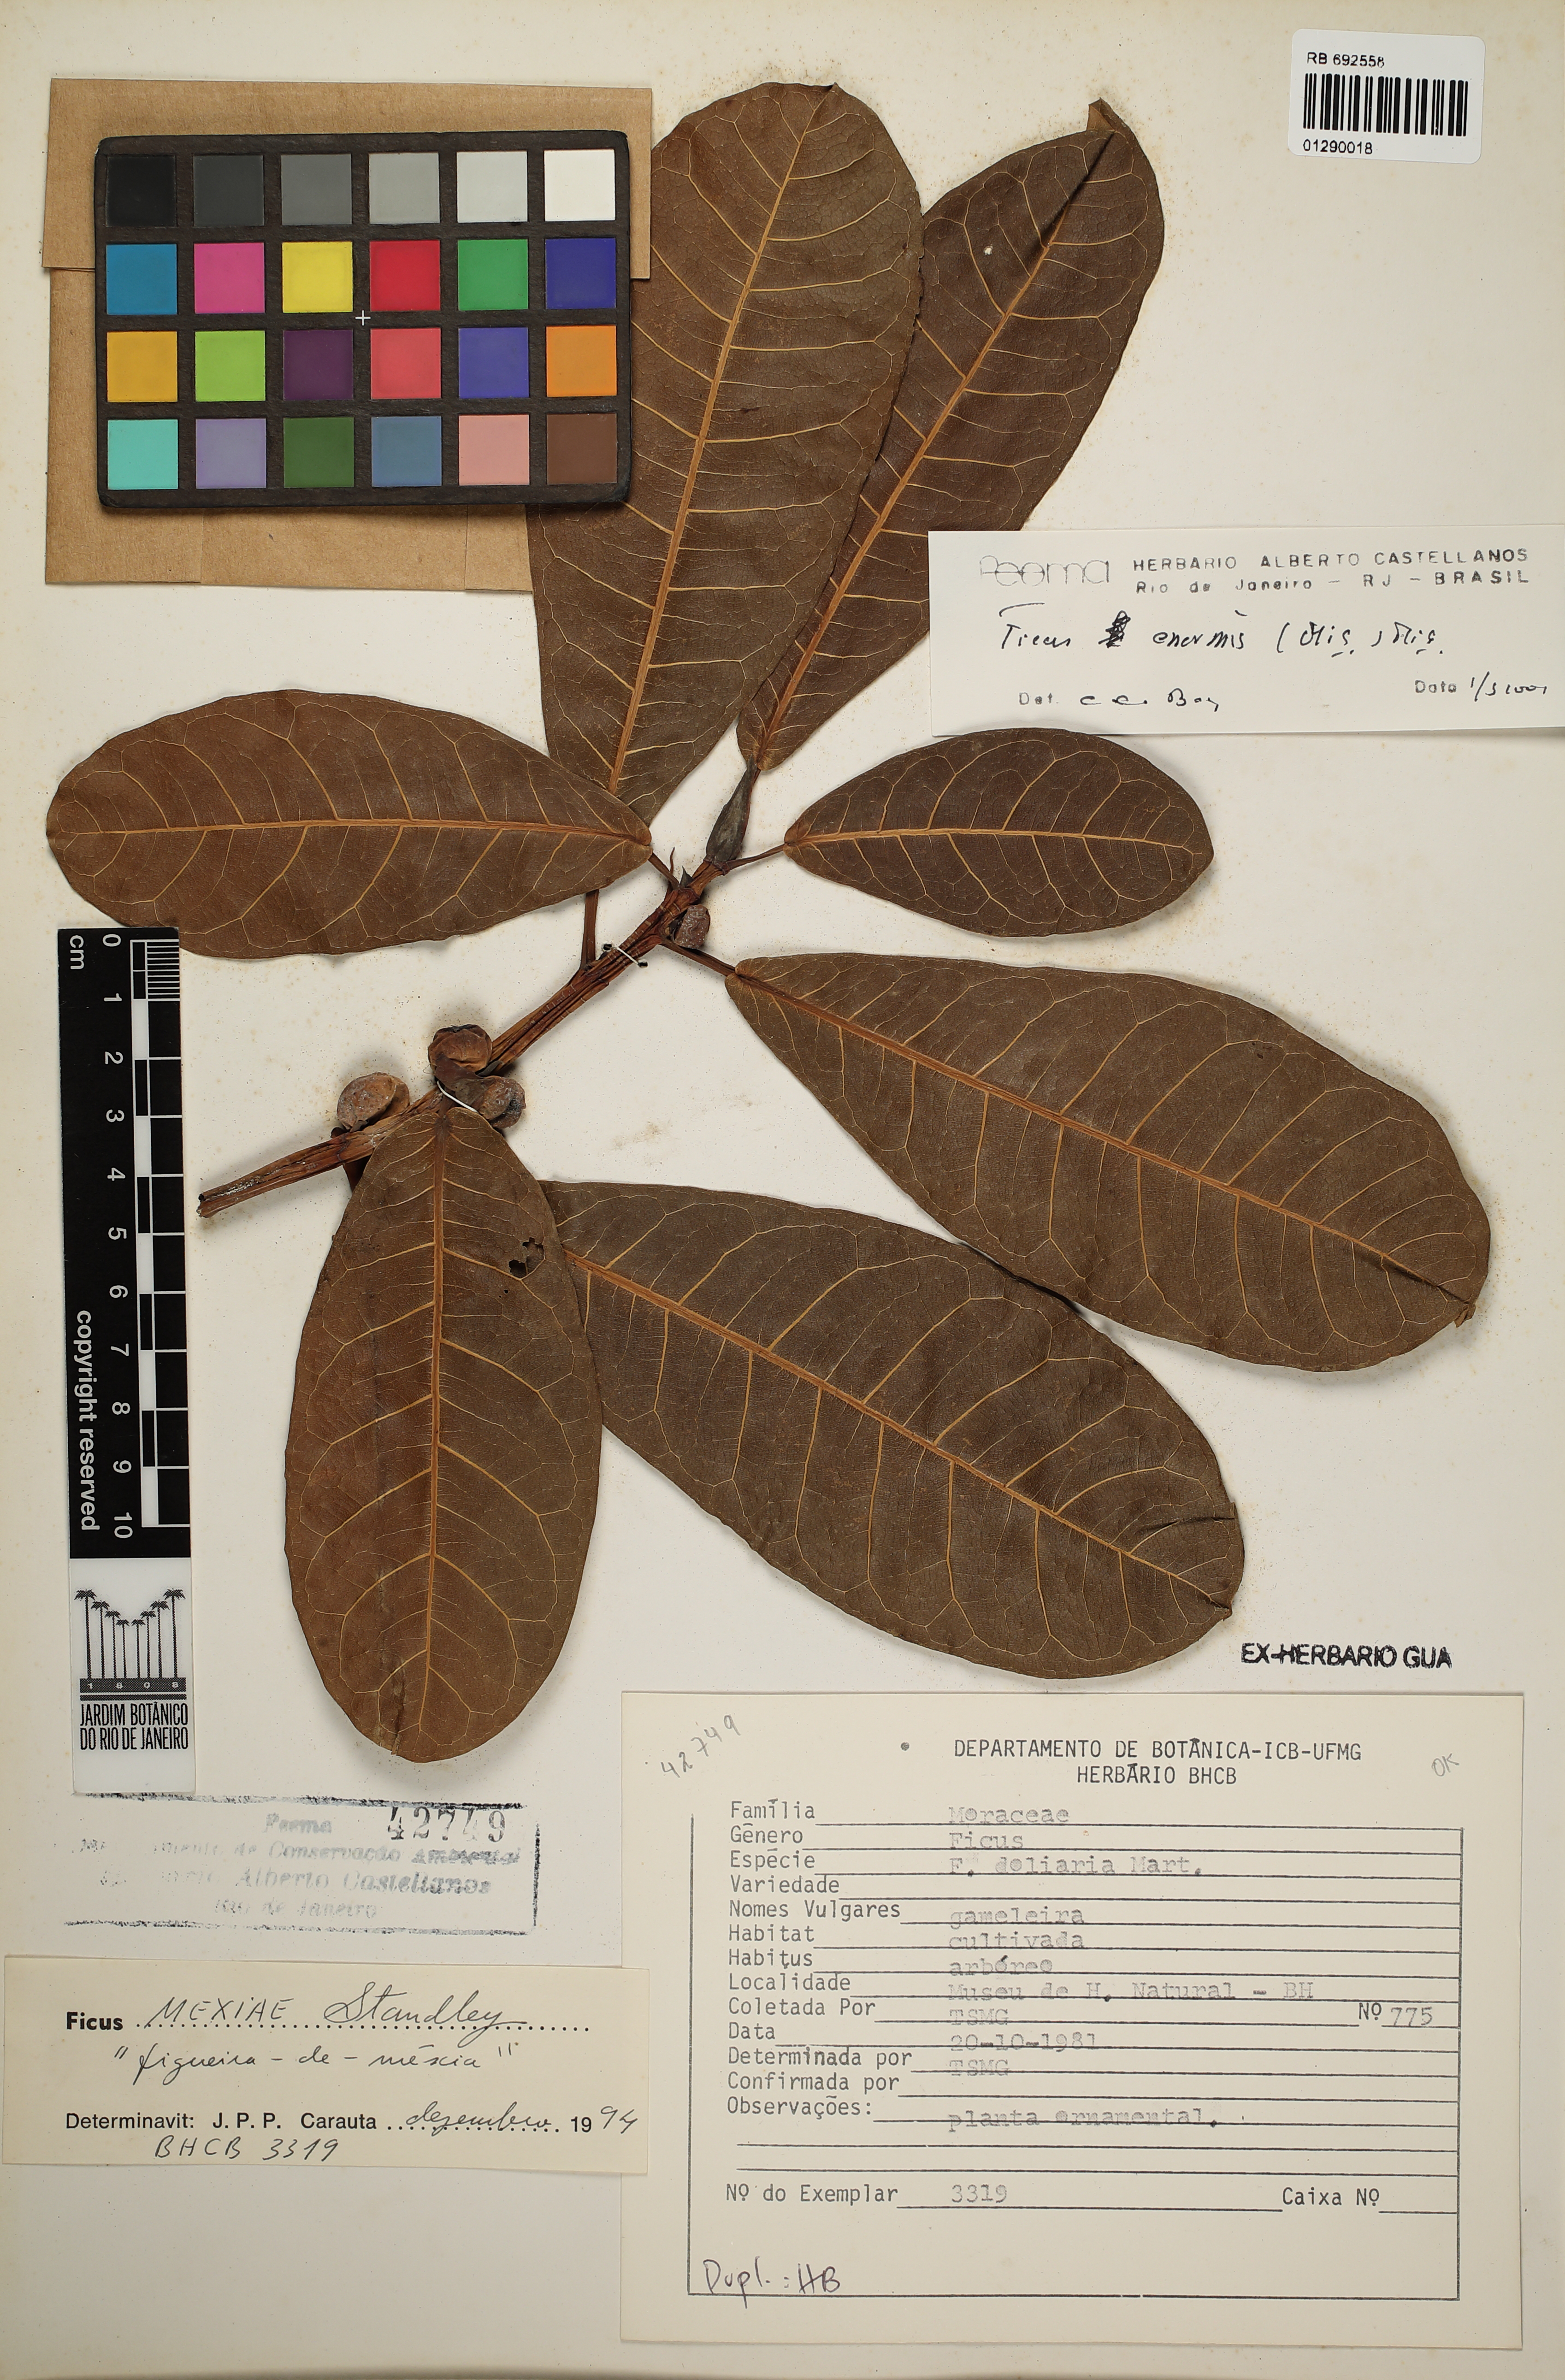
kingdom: Plantae
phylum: Tracheophyta
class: Magnoliopsida
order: Rosales
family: Moraceae
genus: Ficus
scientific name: Ficus enormis
